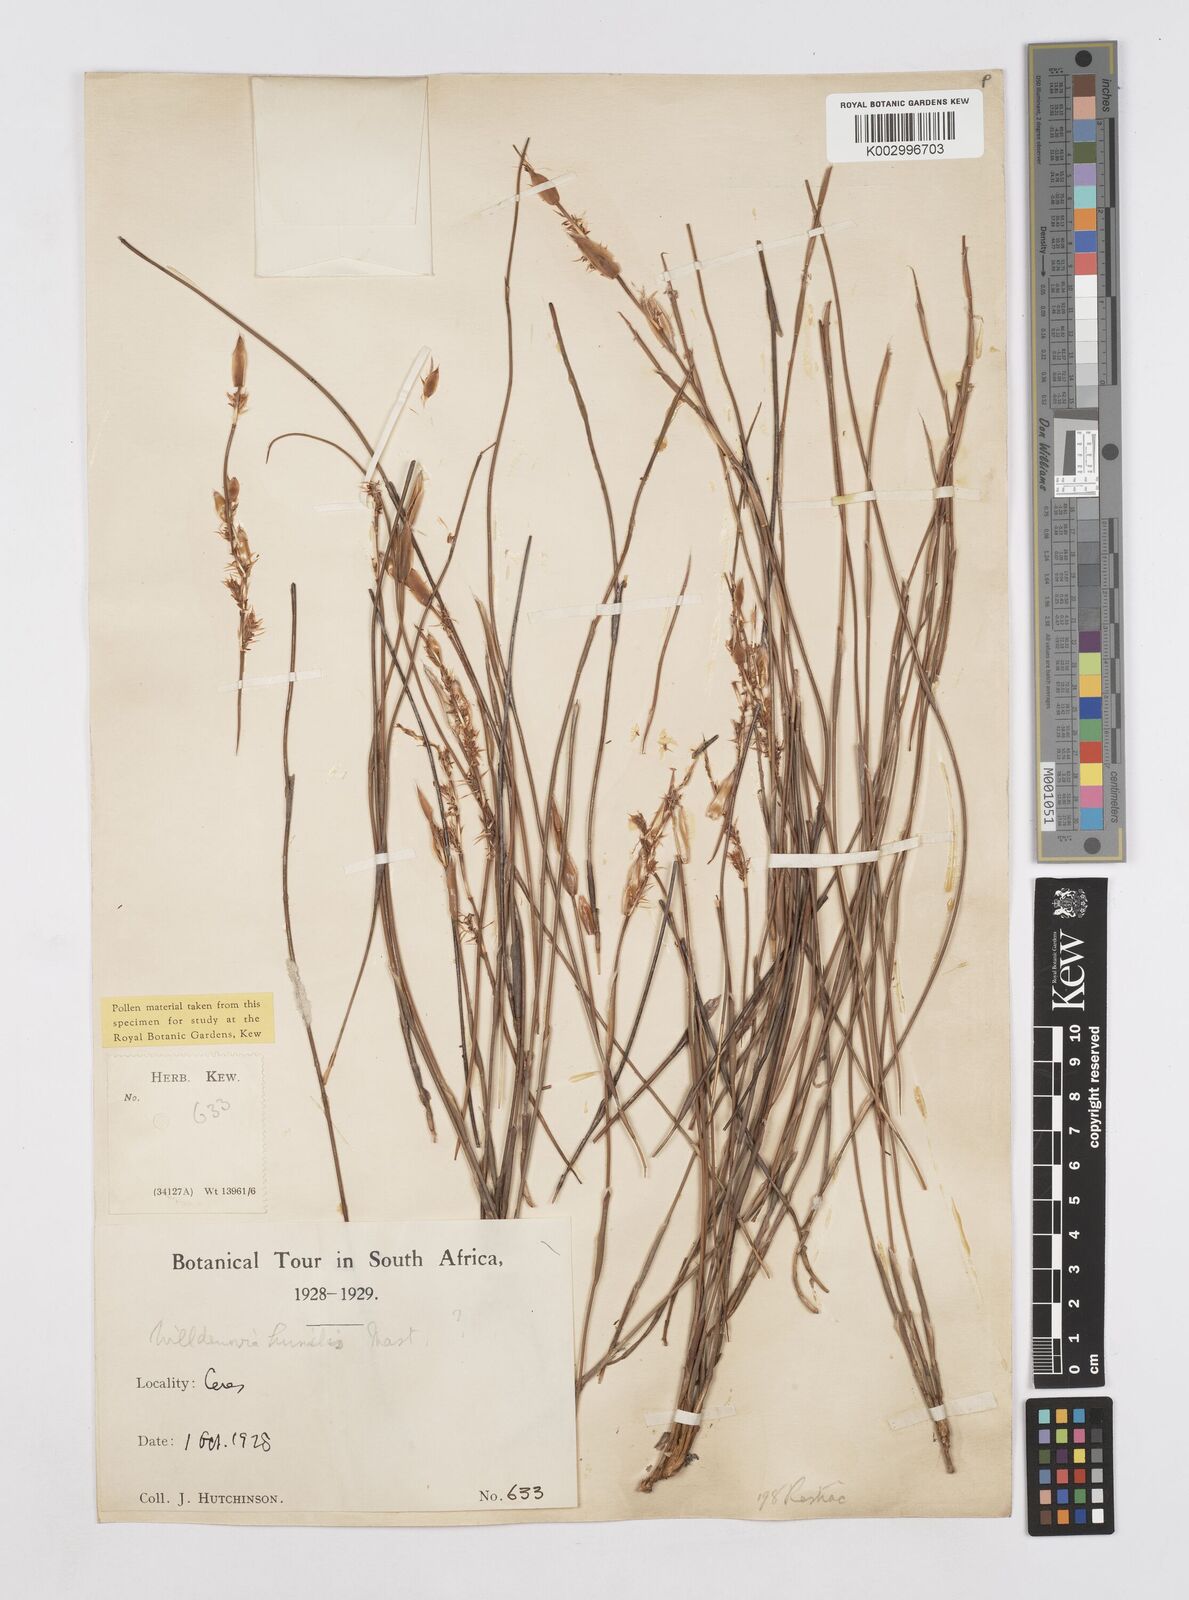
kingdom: Plantae
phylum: Tracheophyta
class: Liliopsida
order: Poales
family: Restionaceae
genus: Willdenowia
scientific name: Willdenowia humilis
